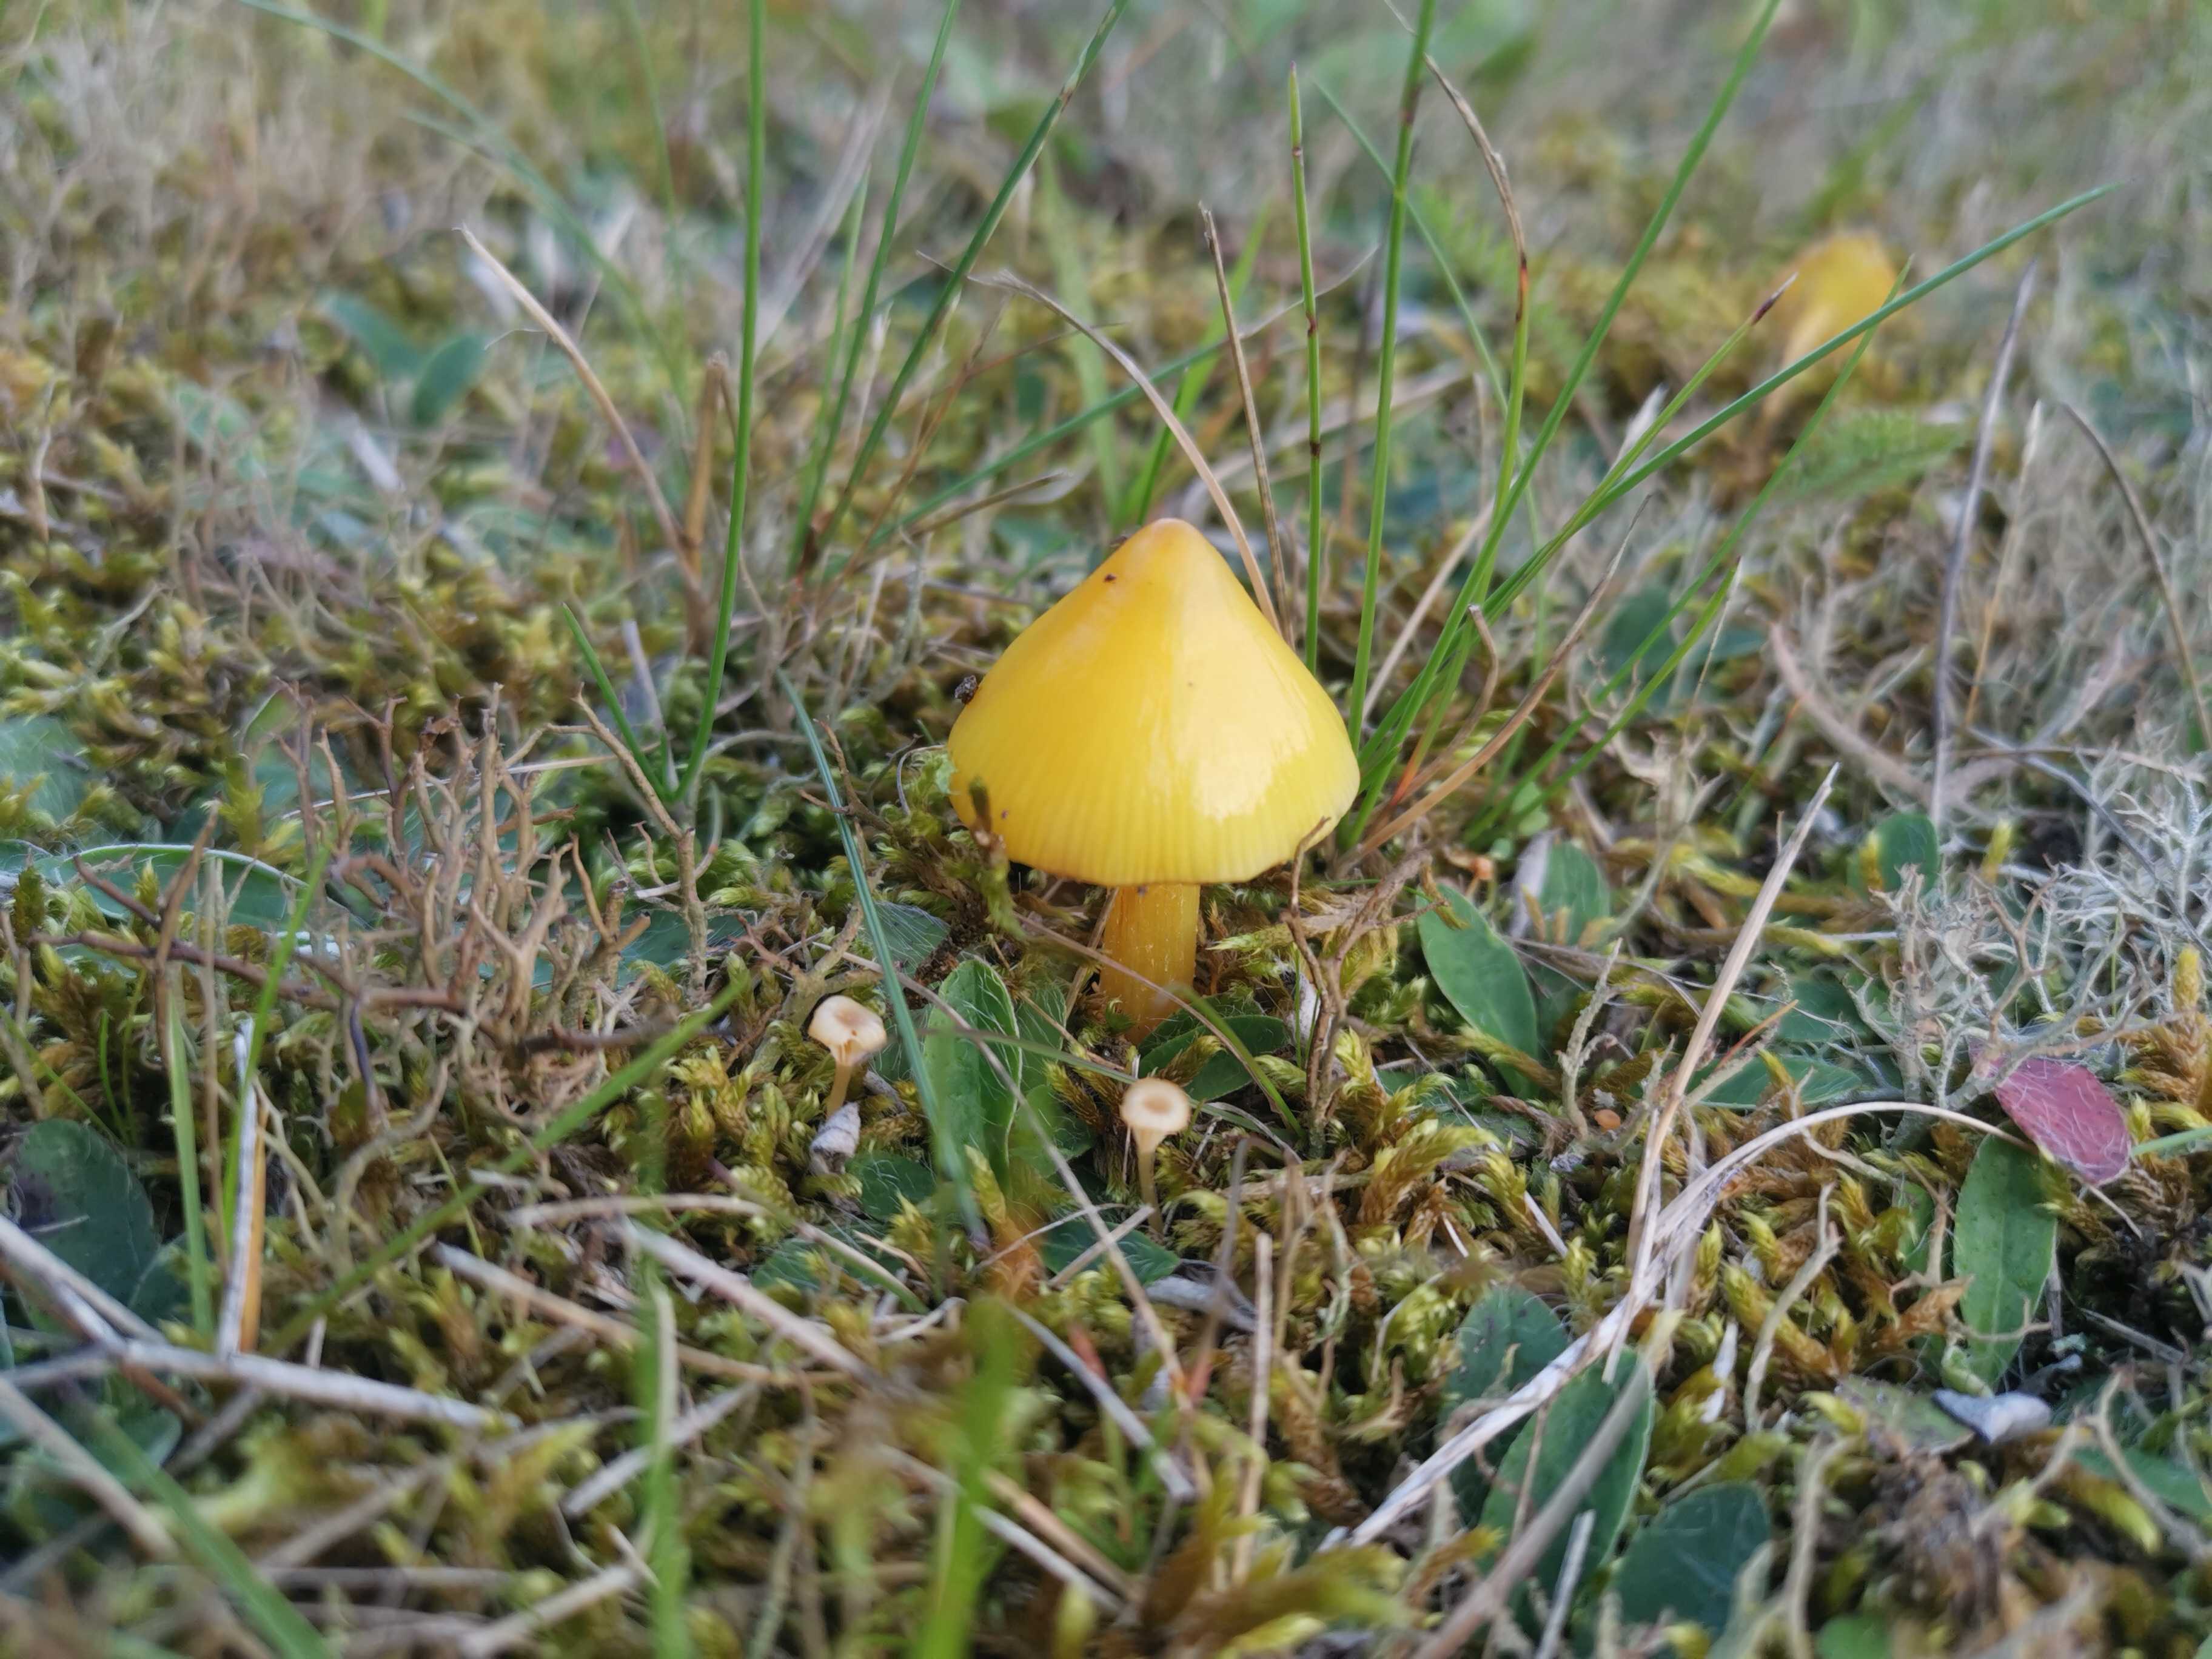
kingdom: Fungi
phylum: Basidiomycota
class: Agaricomycetes
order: Agaricales
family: Hygrophoraceae
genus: Hygrocybe
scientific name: Hygrocybe
